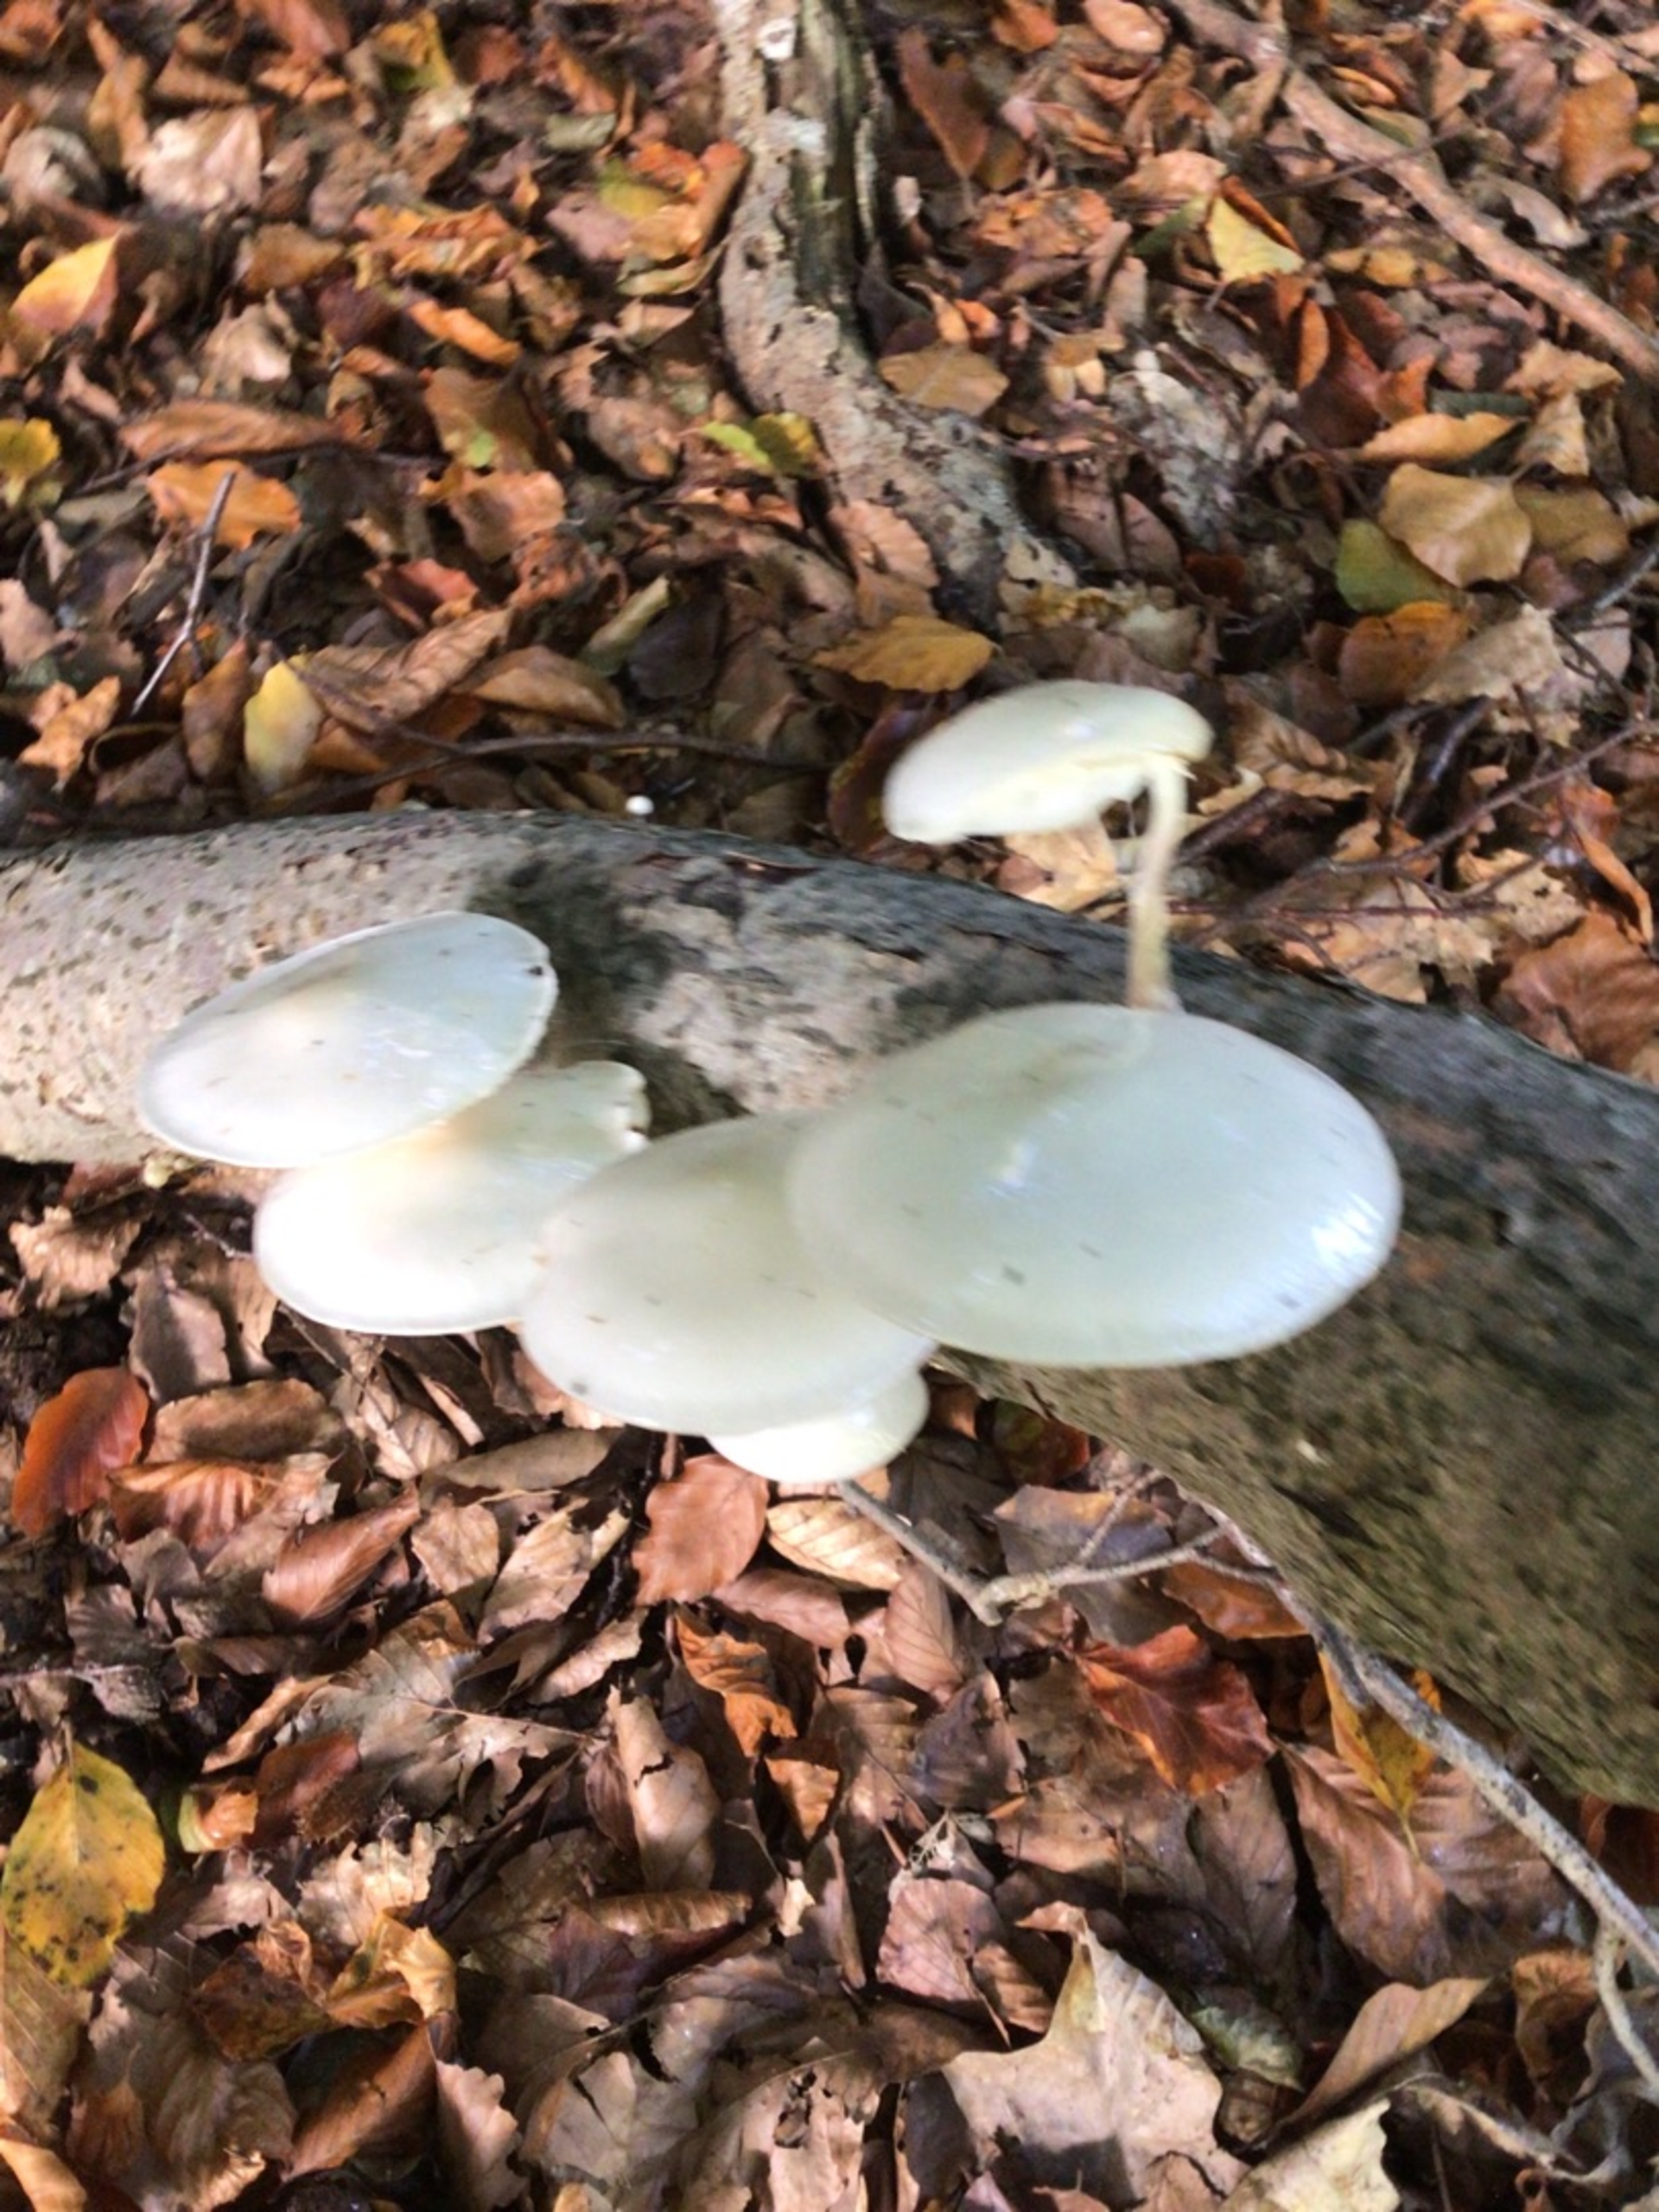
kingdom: Fungi
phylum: Basidiomycota
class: Agaricomycetes
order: Agaricales
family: Physalacriaceae
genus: Mucidula
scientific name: Mucidula
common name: Porcelænshat
